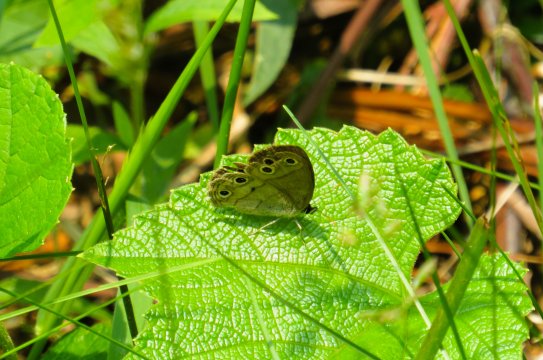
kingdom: Animalia
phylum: Arthropoda
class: Insecta
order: Lepidoptera
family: Nymphalidae
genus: Euptychia
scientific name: Euptychia cymela
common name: Little Wood Satyr
